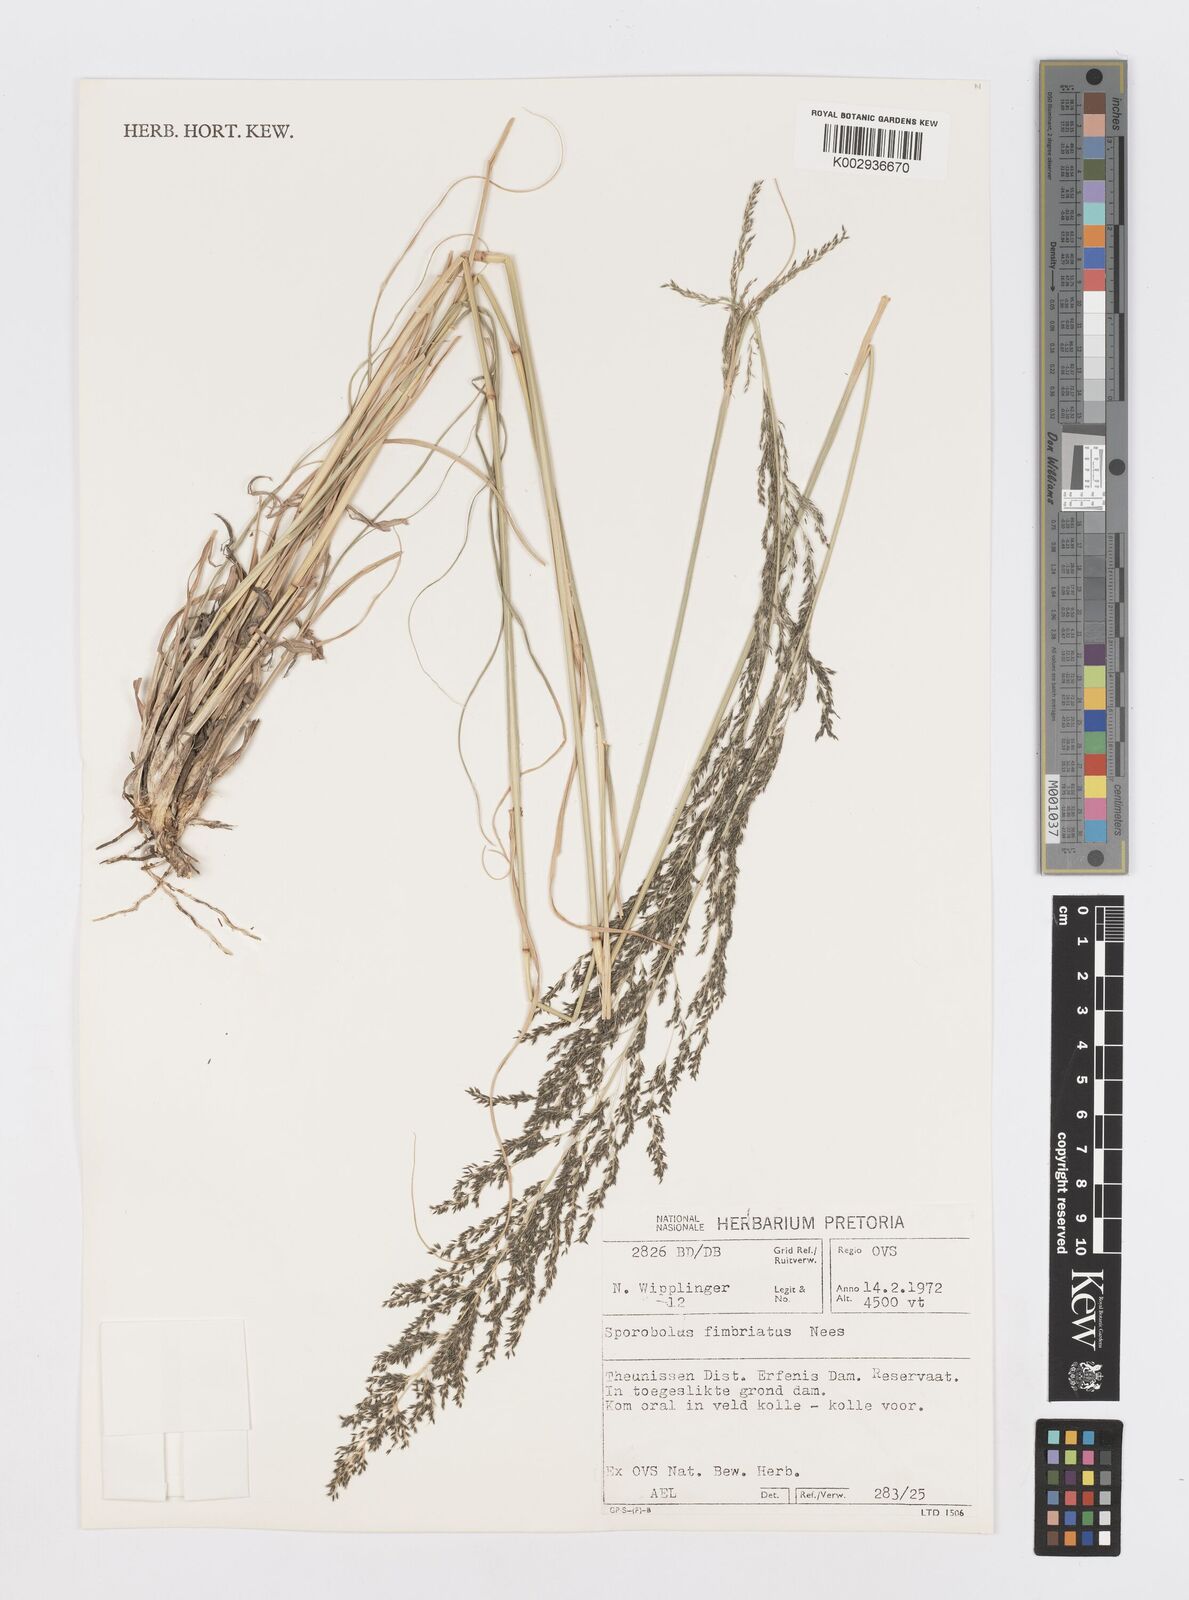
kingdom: Plantae
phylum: Tracheophyta
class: Liliopsida
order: Poales
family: Poaceae
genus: Sporobolus
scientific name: Sporobolus fimbriatus
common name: Fringed dropseed
